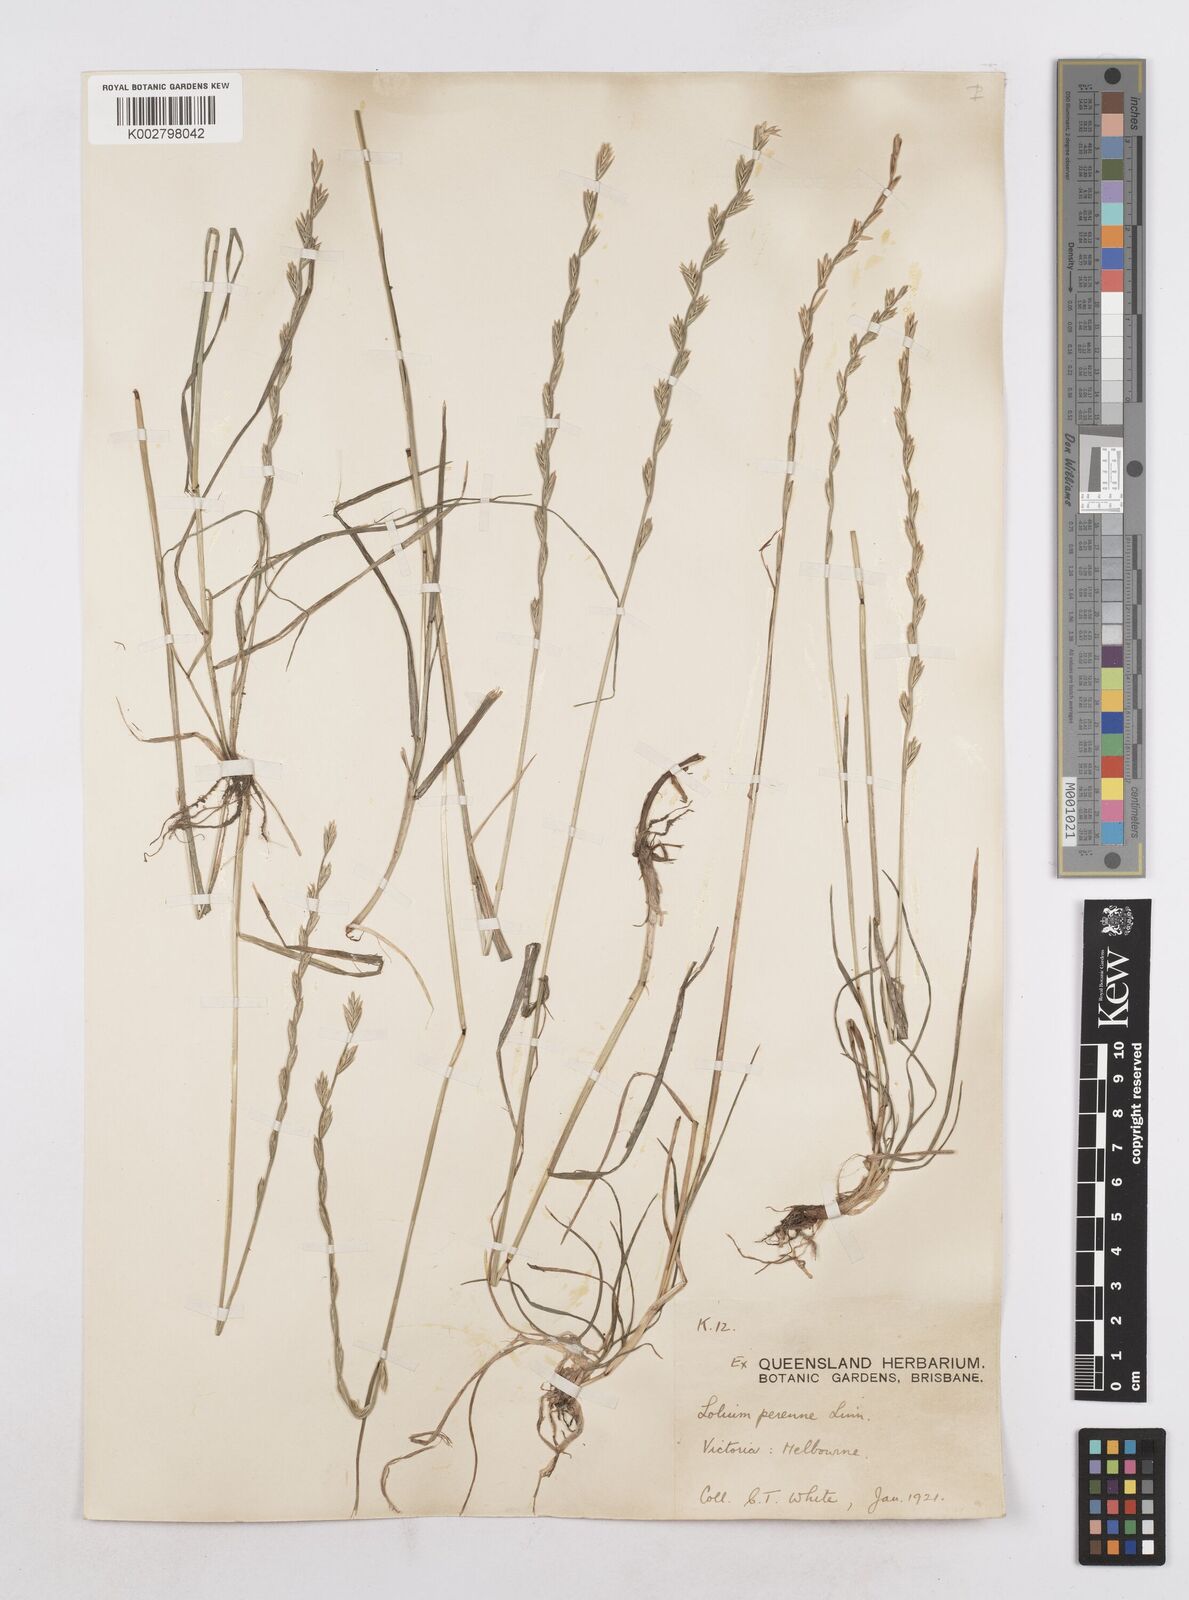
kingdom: Plantae
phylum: Tracheophyta
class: Liliopsida
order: Poales
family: Poaceae
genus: Lolium
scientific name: Lolium perenne
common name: Perennial ryegrass
